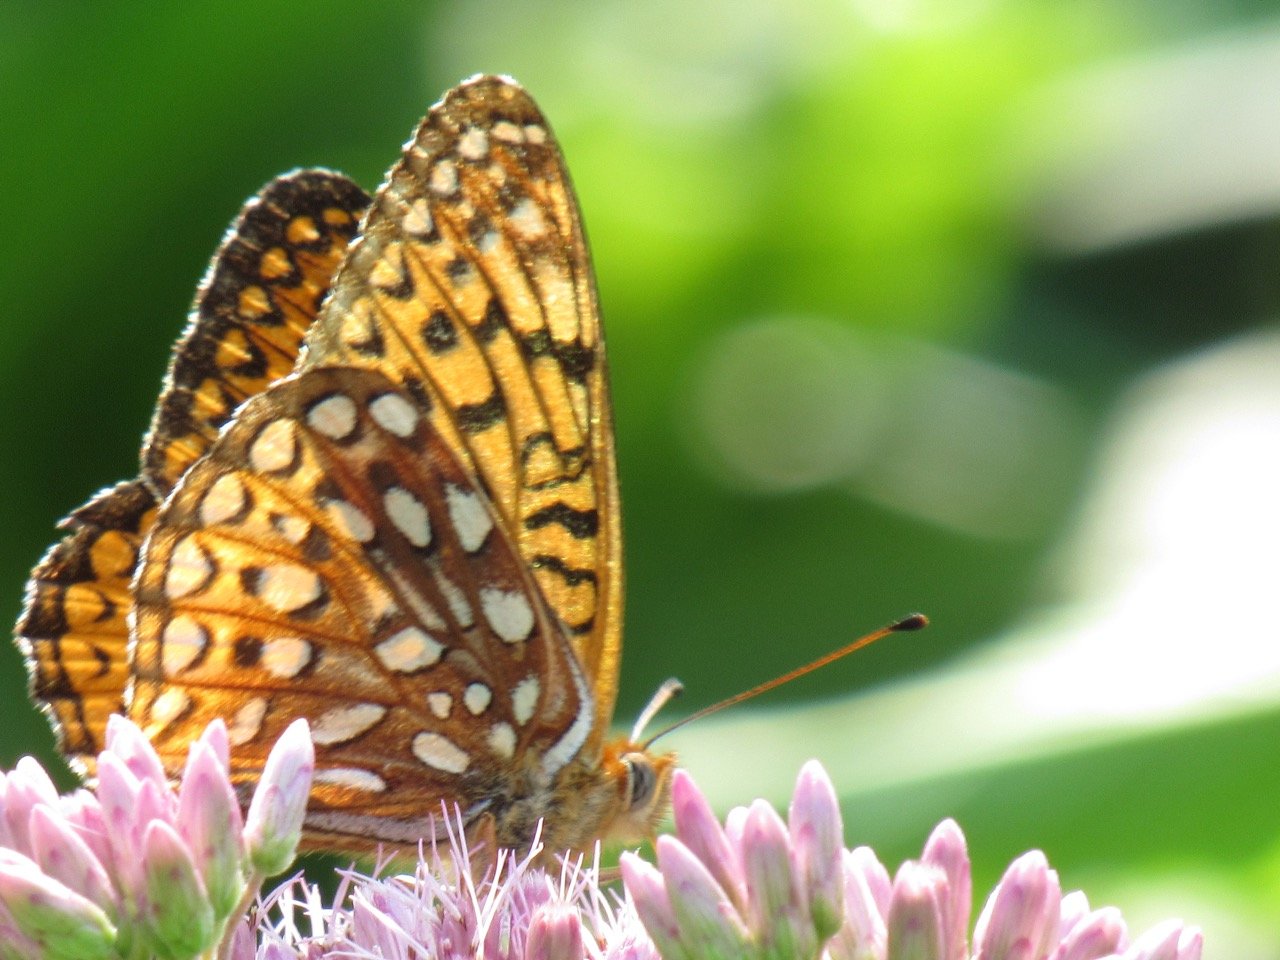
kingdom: Animalia
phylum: Arthropoda
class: Insecta
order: Lepidoptera
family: Nymphalidae
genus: Speyeria
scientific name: Speyeria atlantis
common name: Atlantis Fritillary
